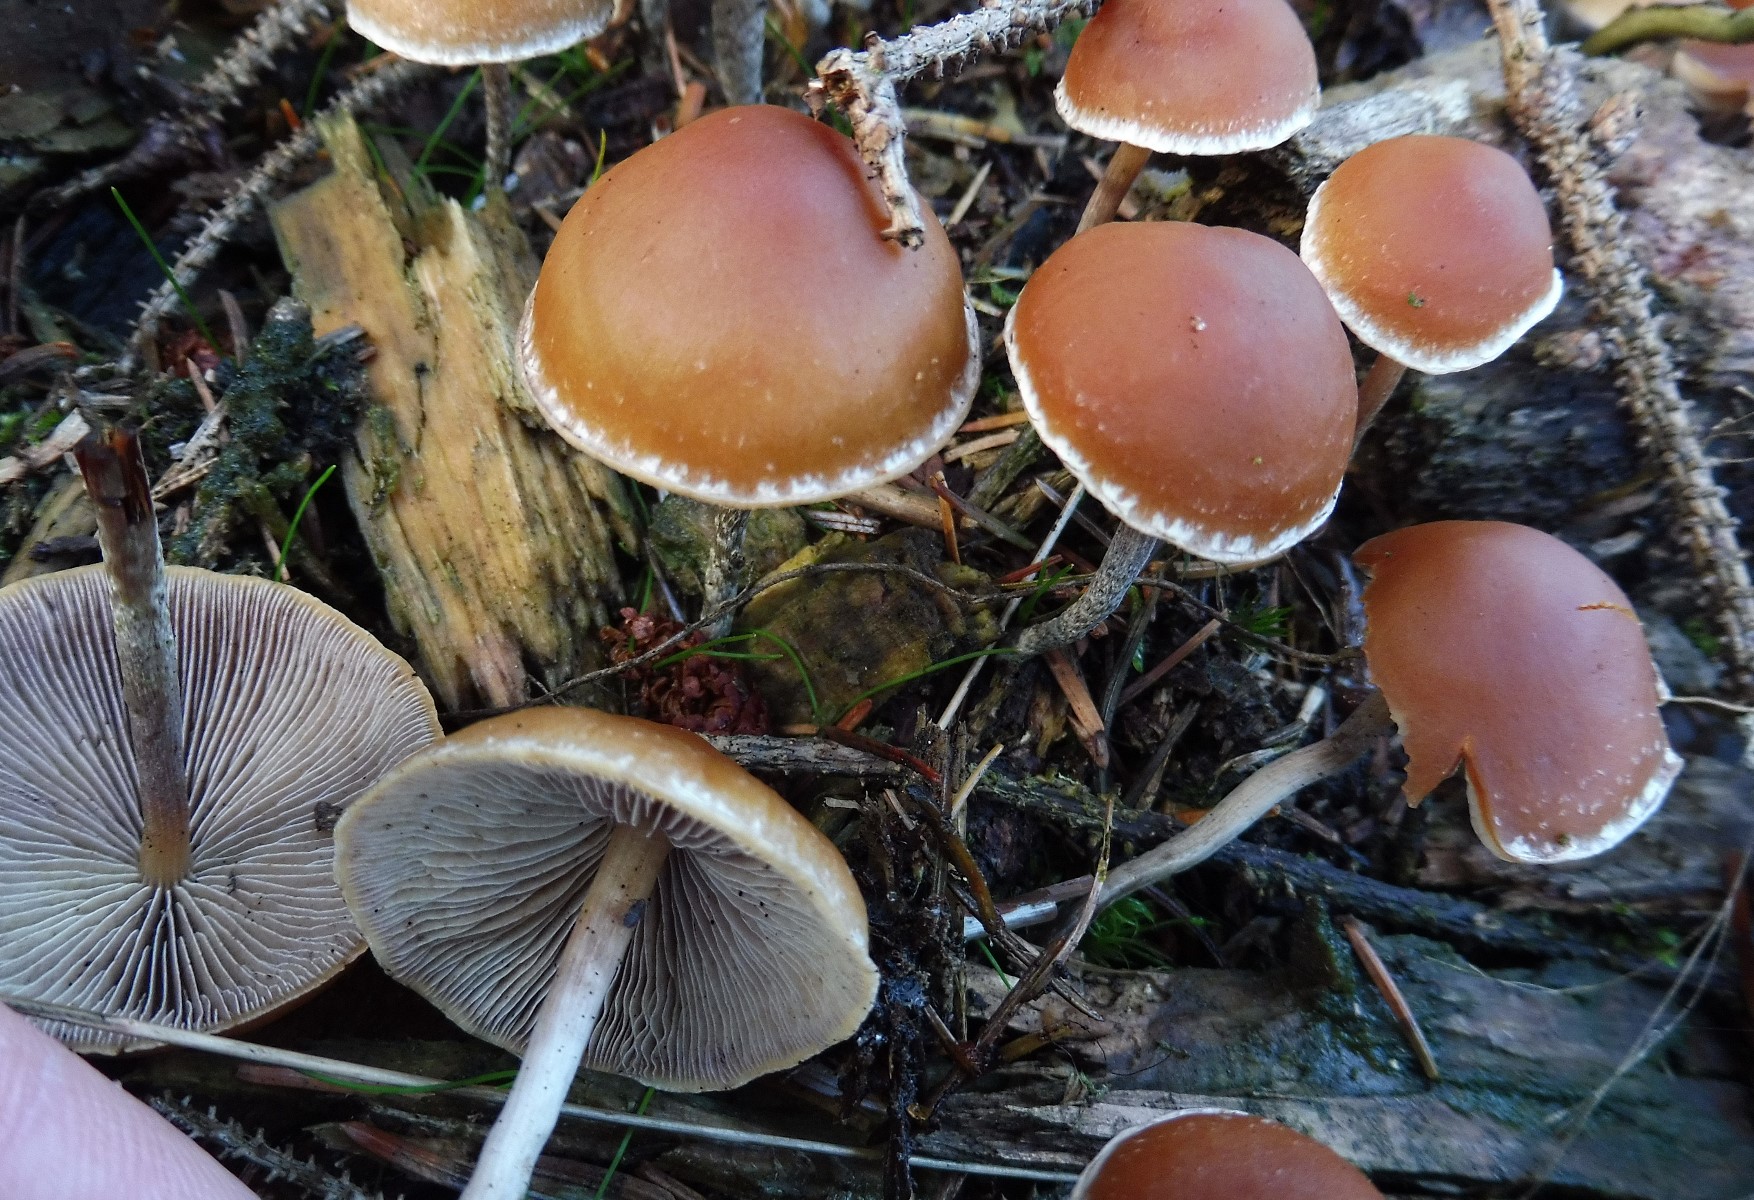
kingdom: Fungi
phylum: Basidiomycota
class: Agaricomycetes
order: Agaricales
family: Strophariaceae
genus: Hypholoma
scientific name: Hypholoma marginatum
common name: enlig svovlhat
